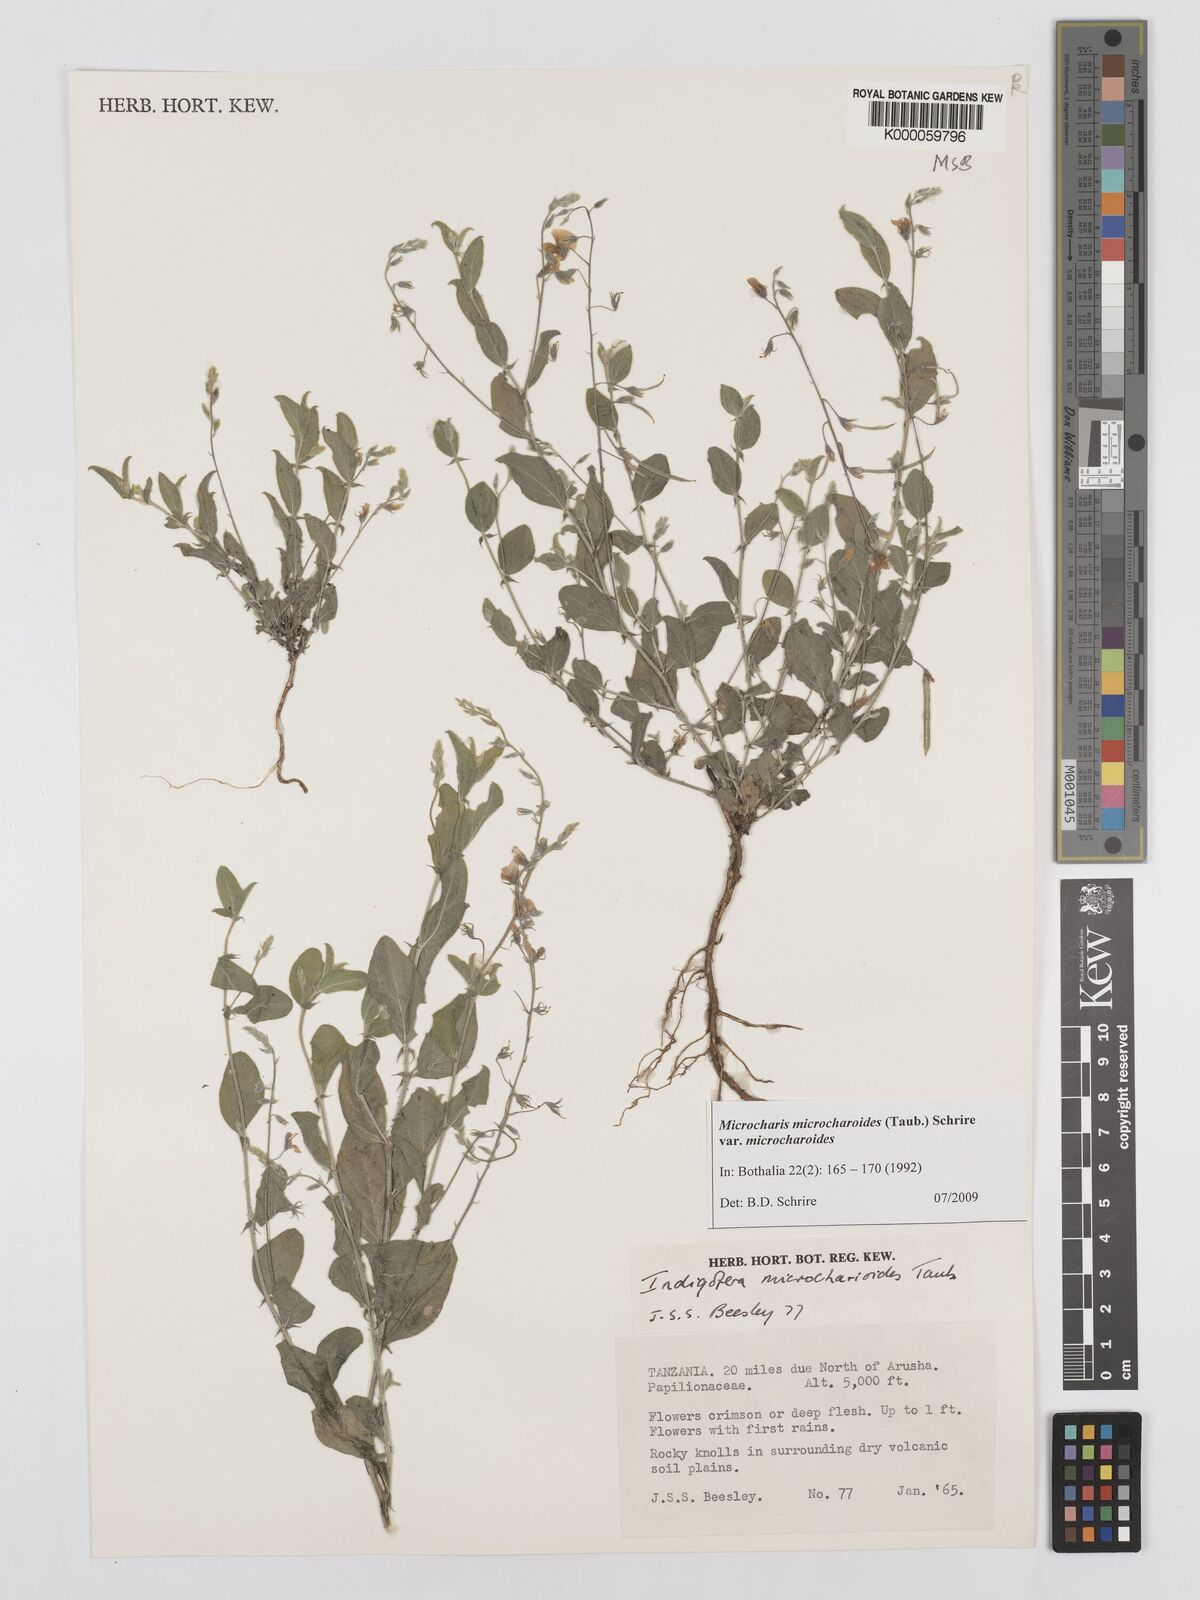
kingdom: Plantae
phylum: Tracheophyta
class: Magnoliopsida
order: Fabales
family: Fabaceae
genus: Microcharis
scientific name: Microcharis microcharoides
